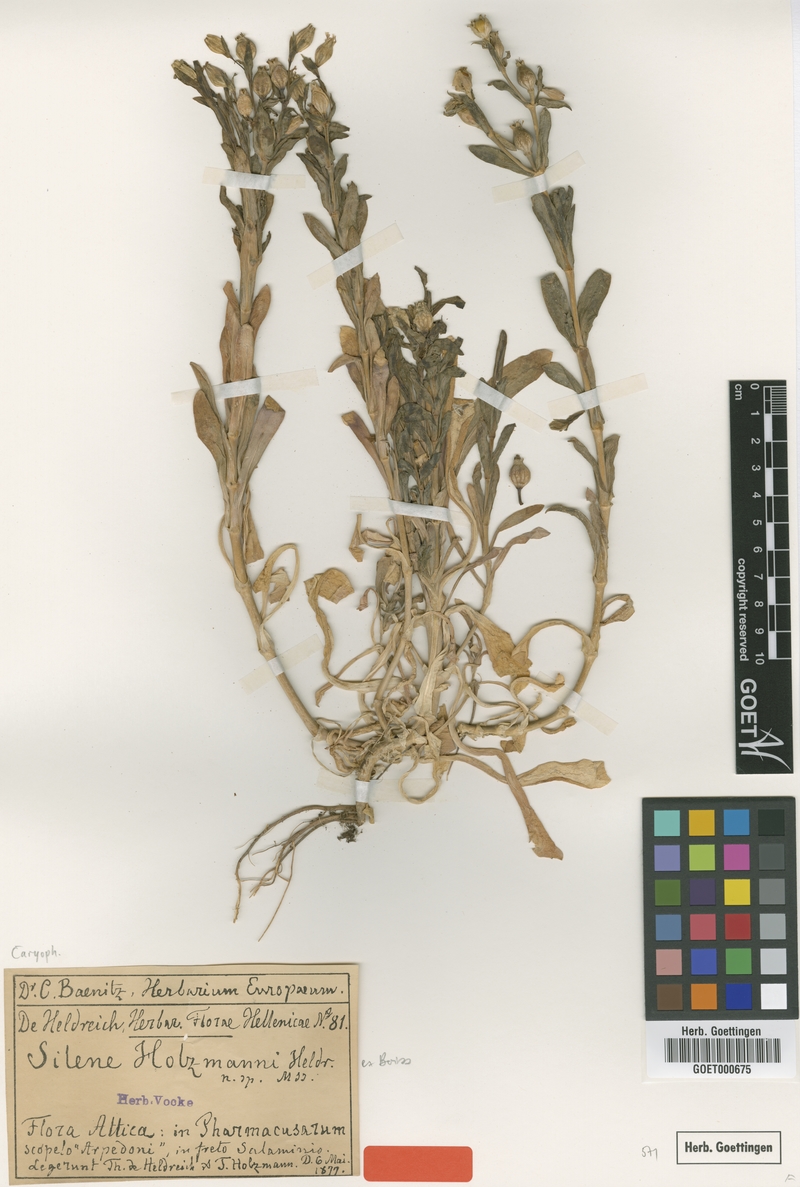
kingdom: Plantae
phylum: Tracheophyta
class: Magnoliopsida
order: Caryophyllales
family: Caryophyllaceae
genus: Silene
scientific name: Silene holzmannii
